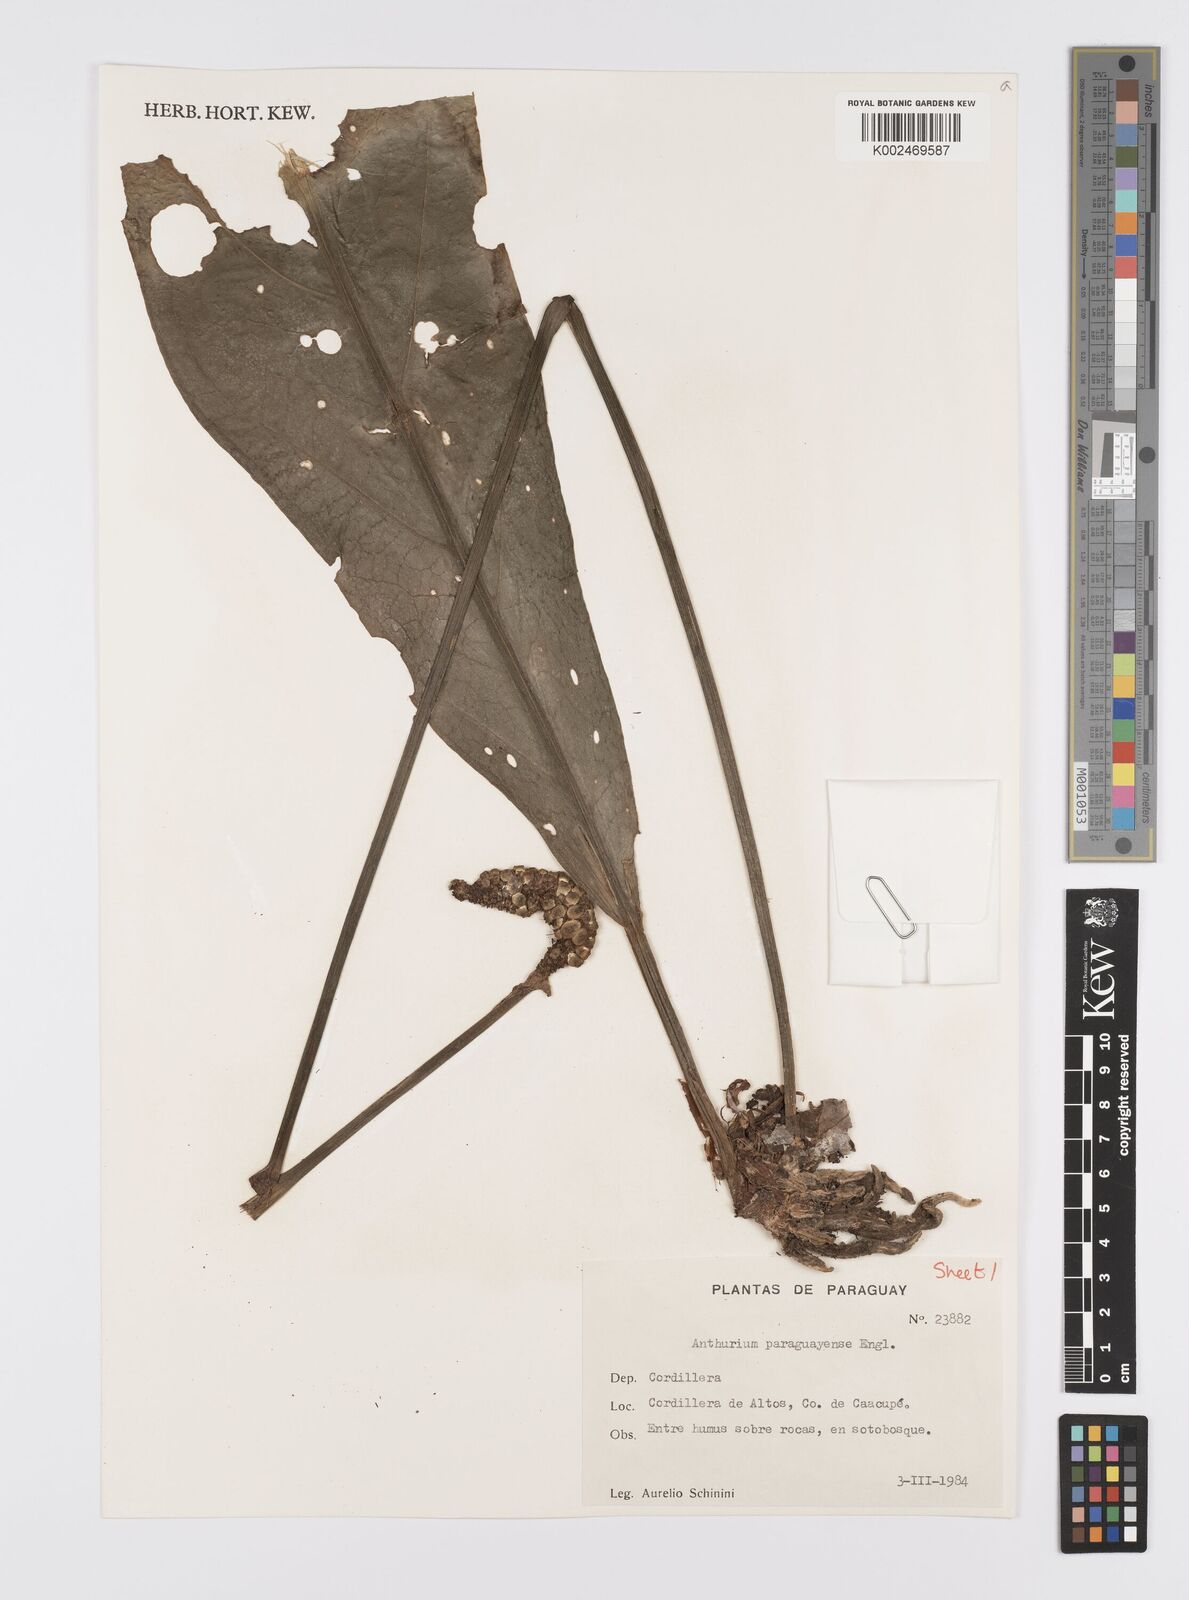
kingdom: Plantae
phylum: Tracheophyta
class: Liliopsida
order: Alismatales
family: Araceae
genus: Anthurium
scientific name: Anthurium paraguayense
